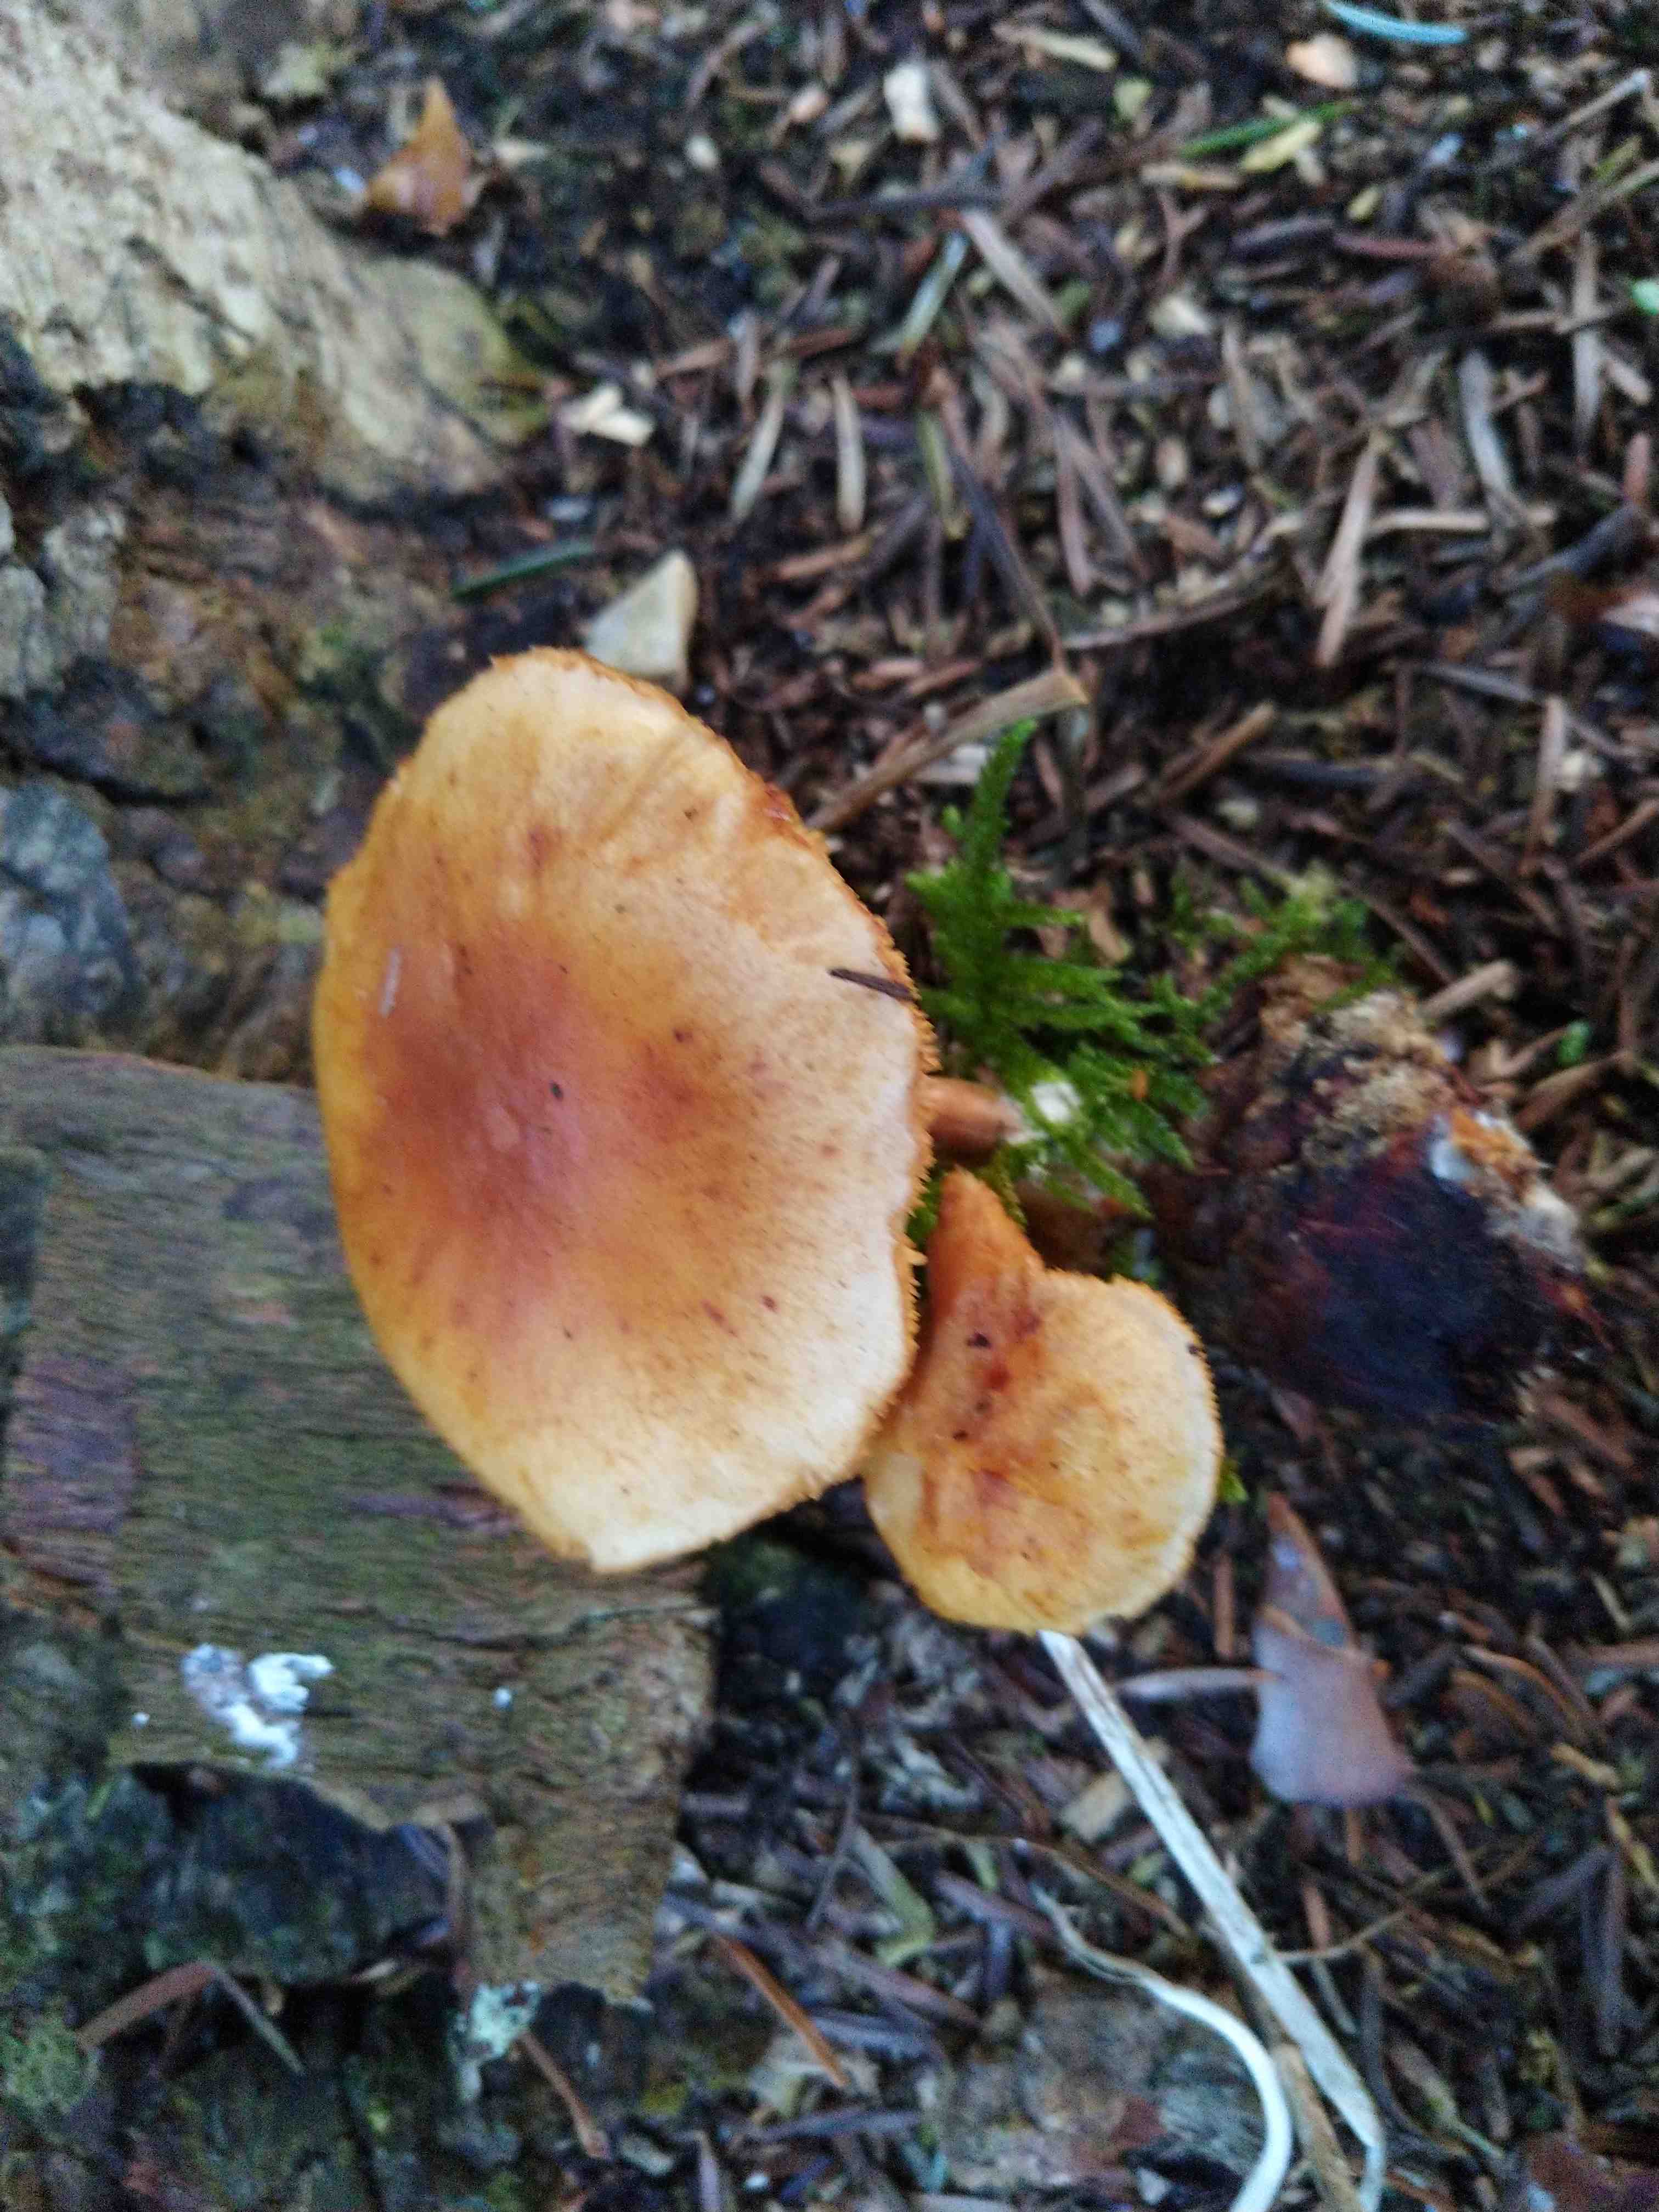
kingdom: Fungi
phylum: Basidiomycota
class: Agaricomycetes
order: Agaricales
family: Hymenogastraceae
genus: Gymnopilus
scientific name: Gymnopilus penetrans
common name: plettet flammehat
